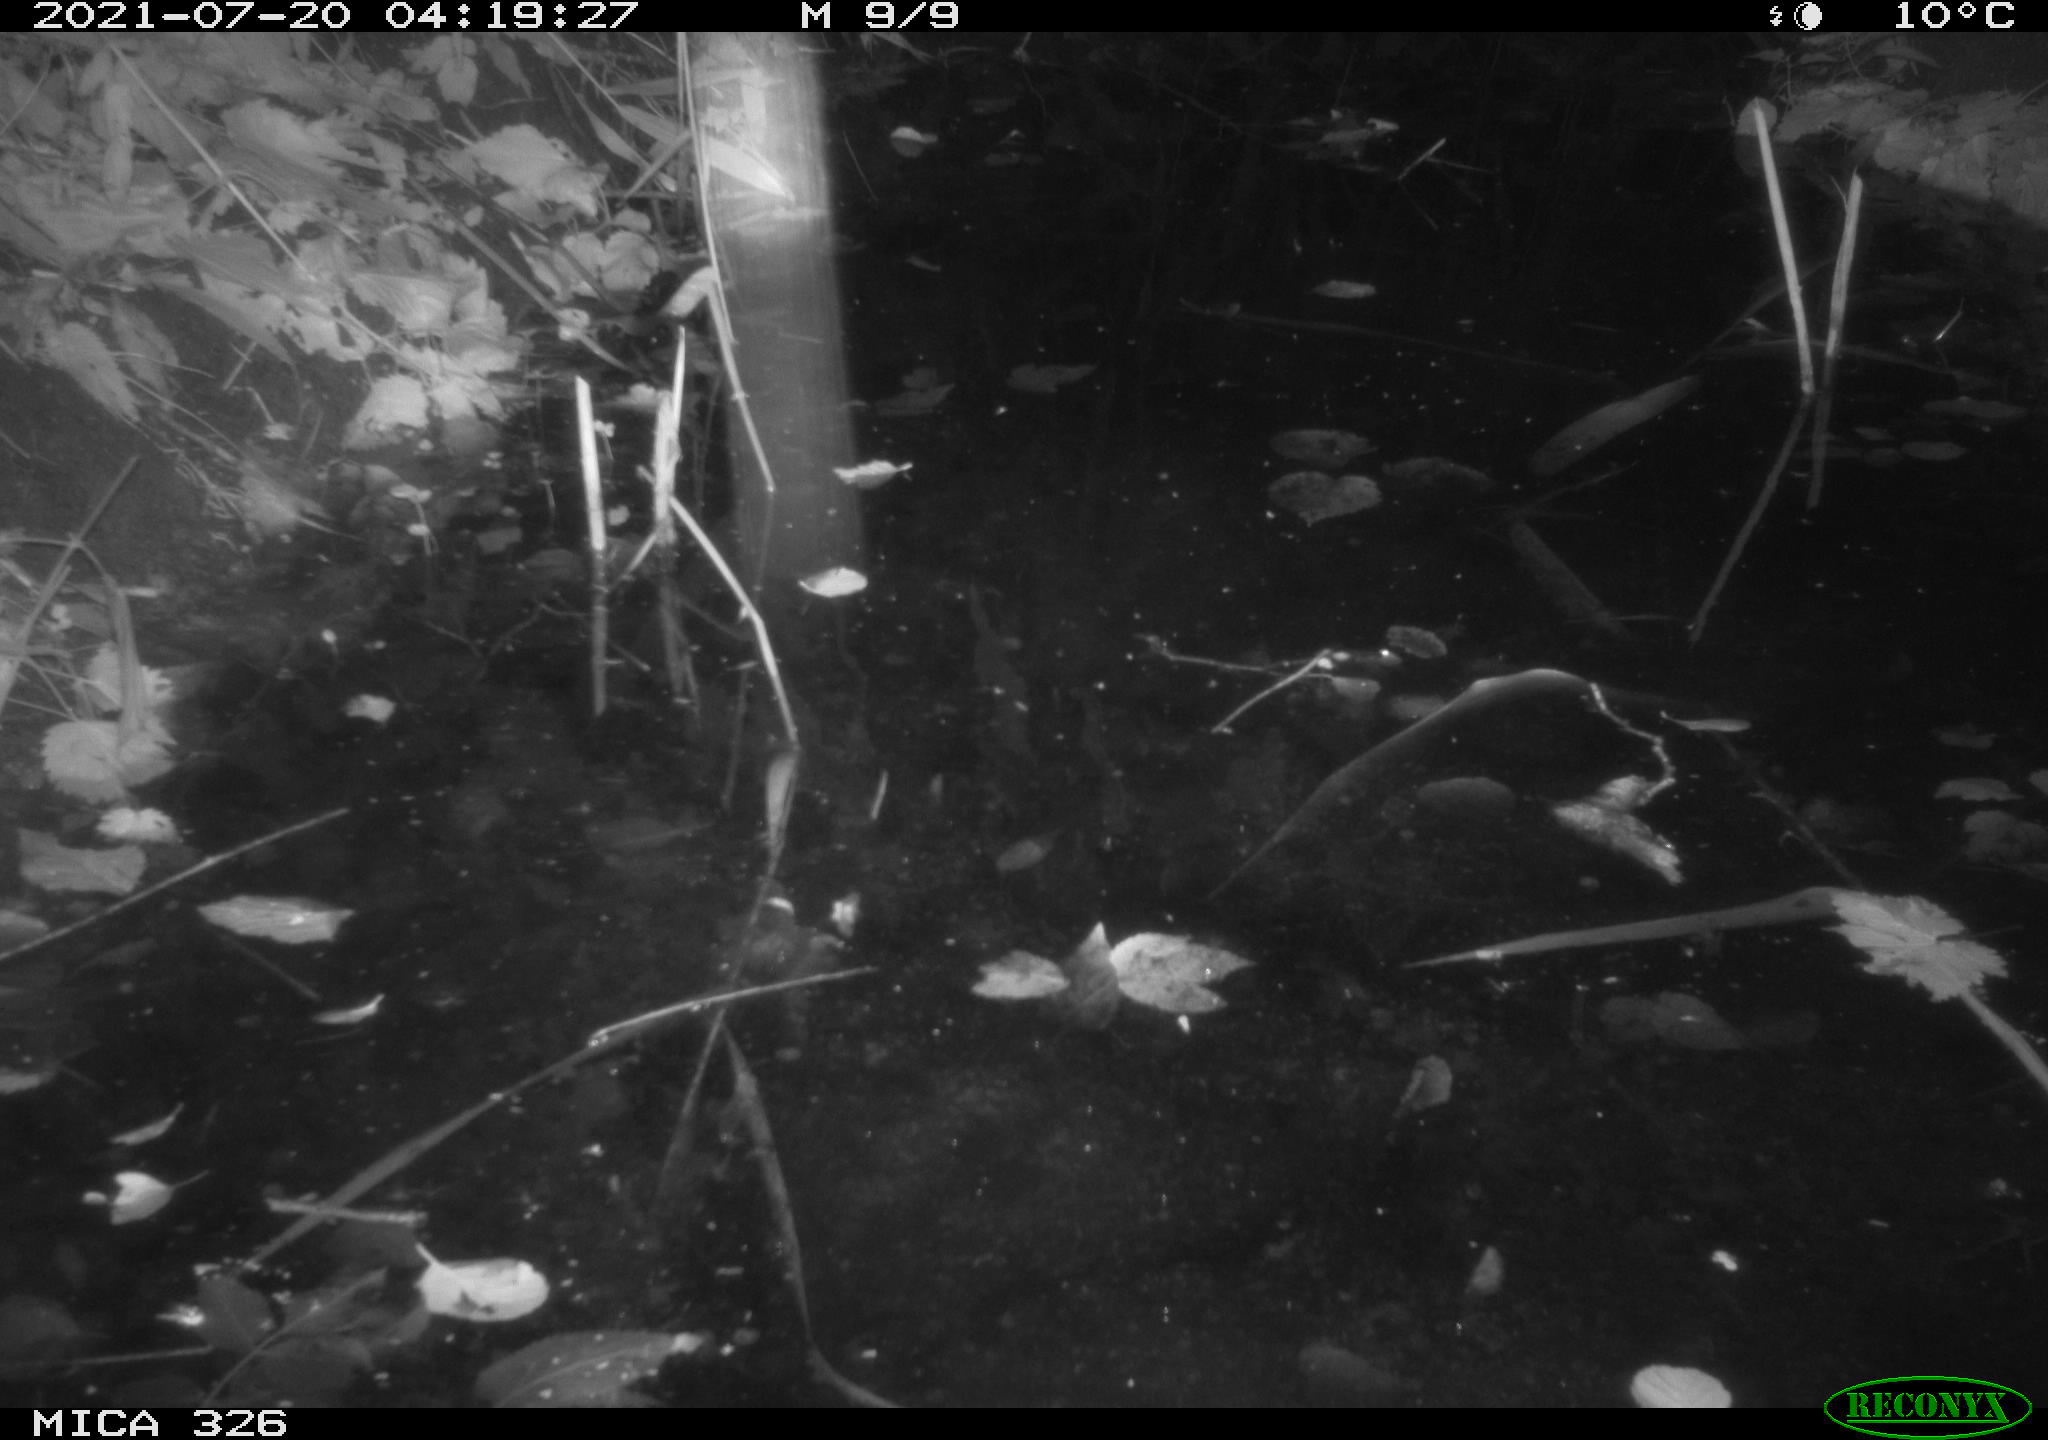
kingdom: Animalia
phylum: Chordata
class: Mammalia
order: Rodentia
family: Myocastoridae
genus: Myocastor
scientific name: Myocastor coypus
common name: Coypu
